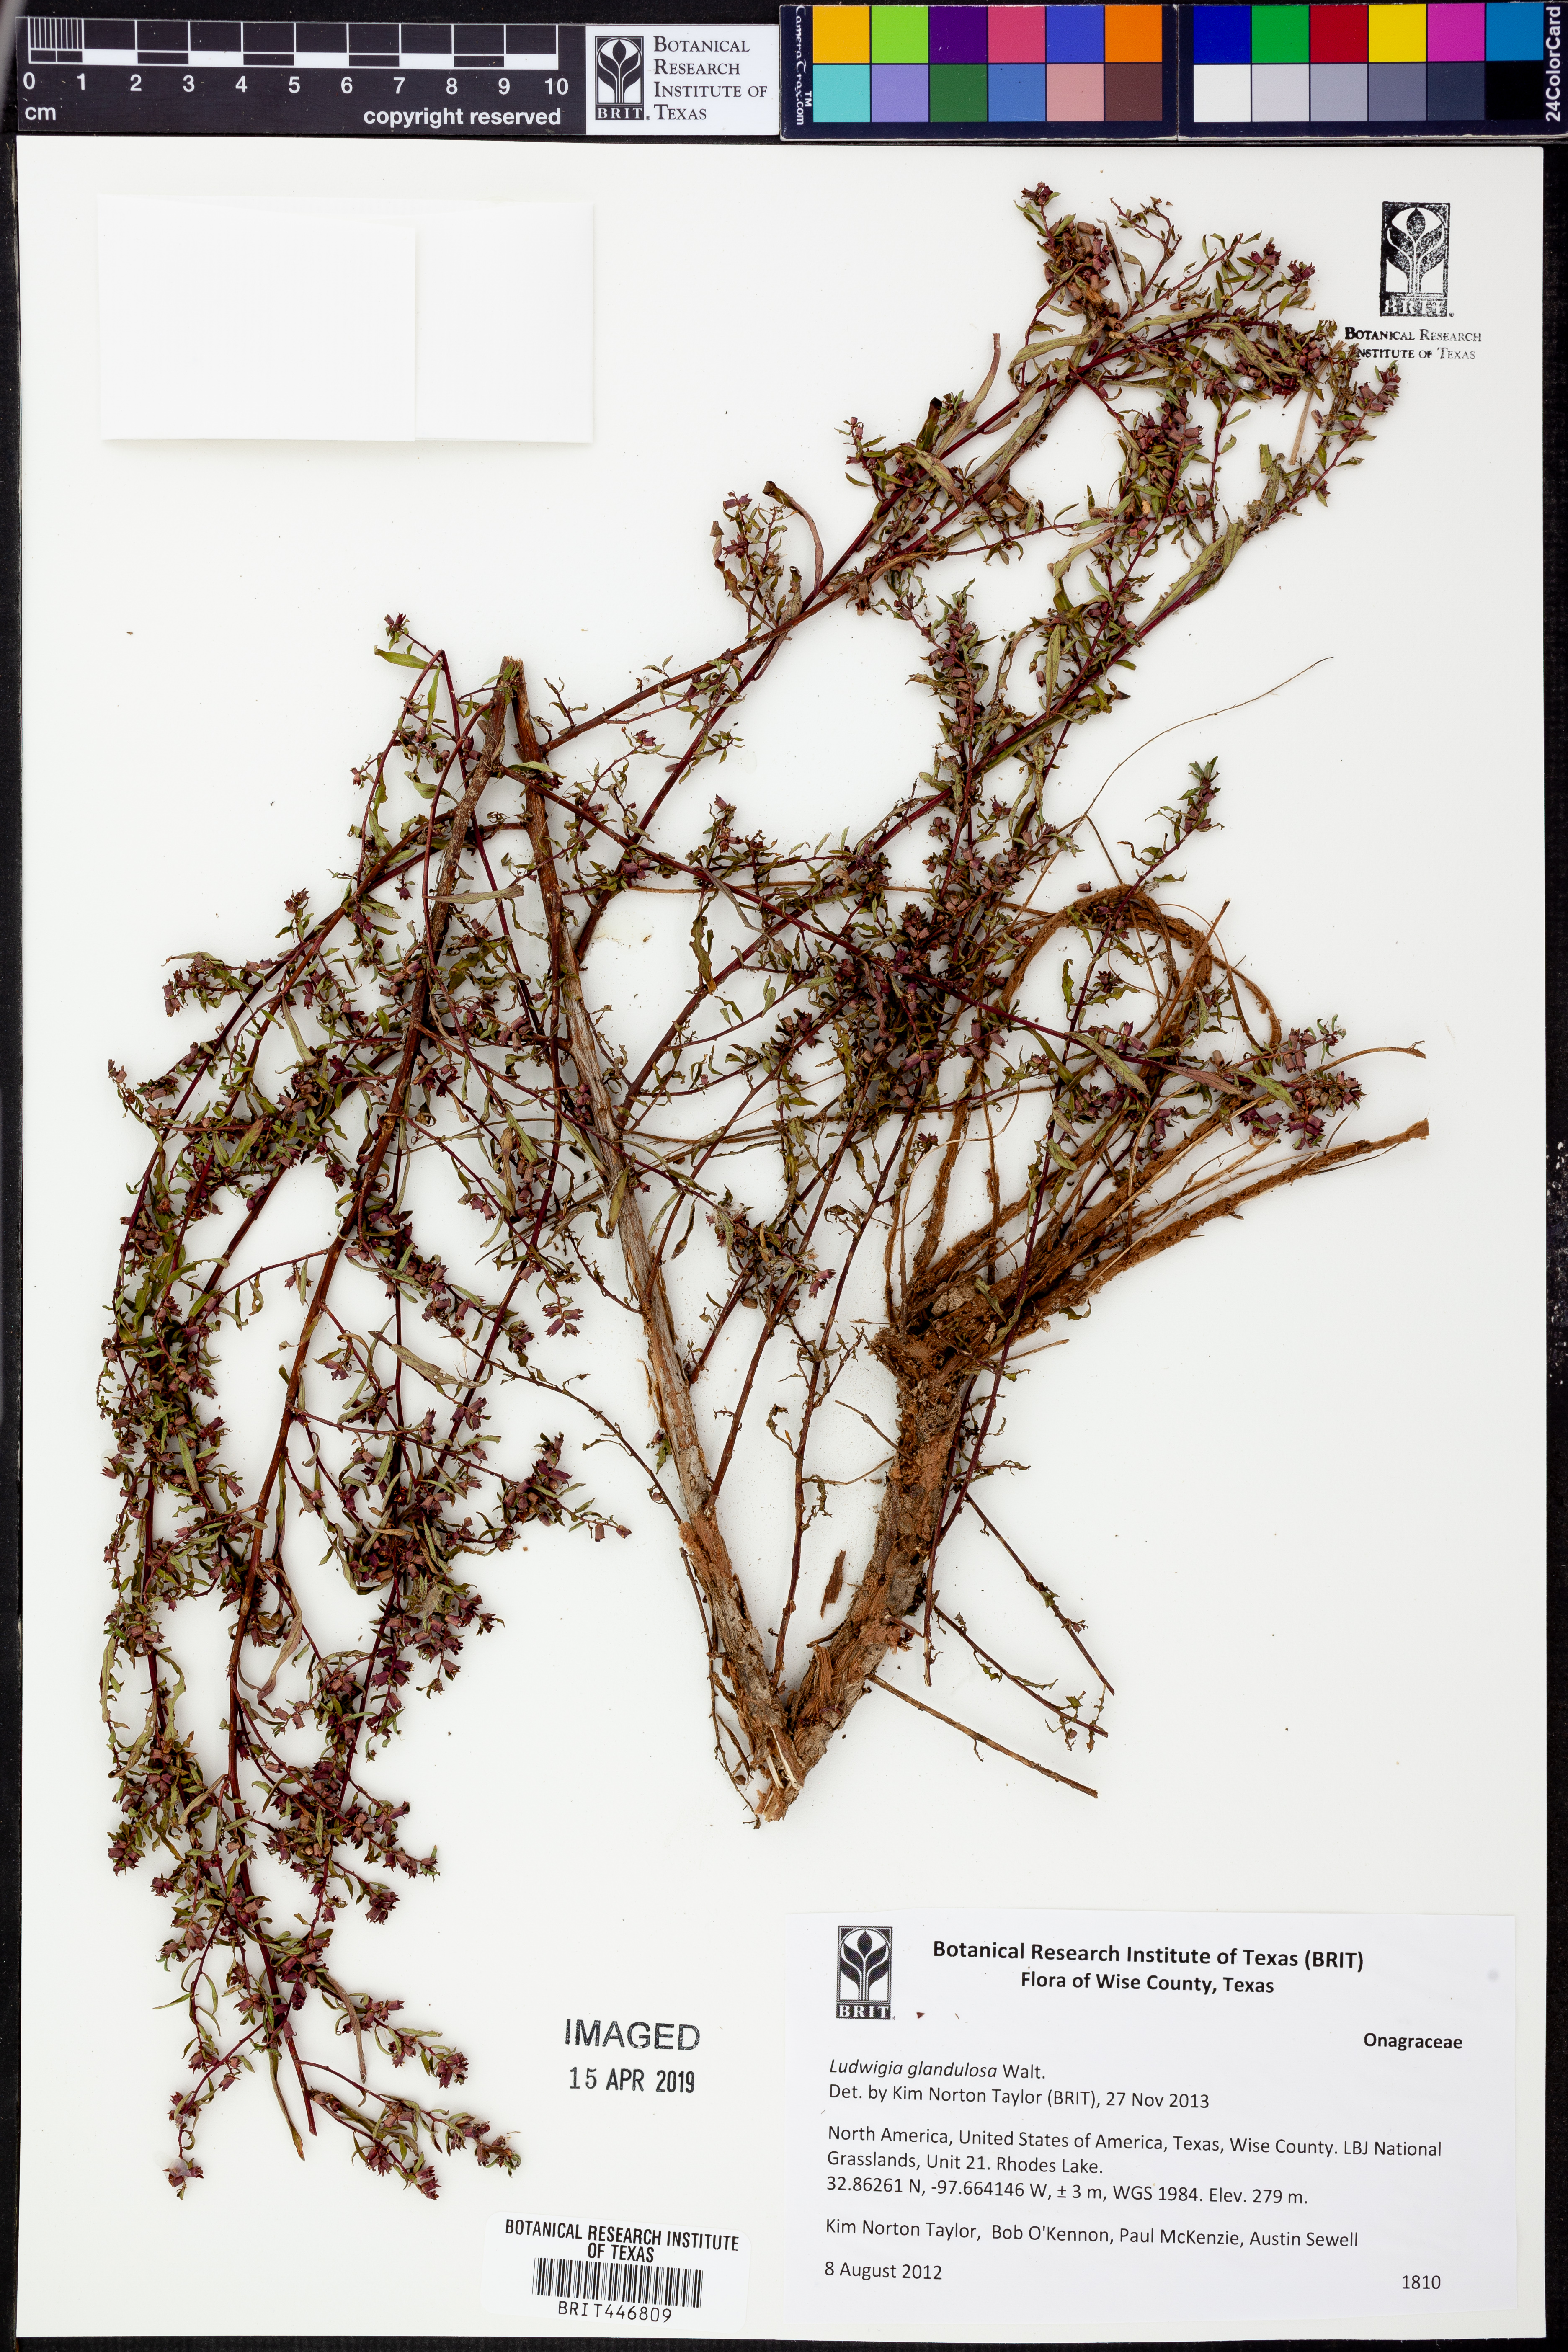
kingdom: Plantae
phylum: Tracheophyta
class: Magnoliopsida
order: Myrtales
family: Onagraceae
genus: Ludwigia
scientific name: Ludwigia glandulosa
